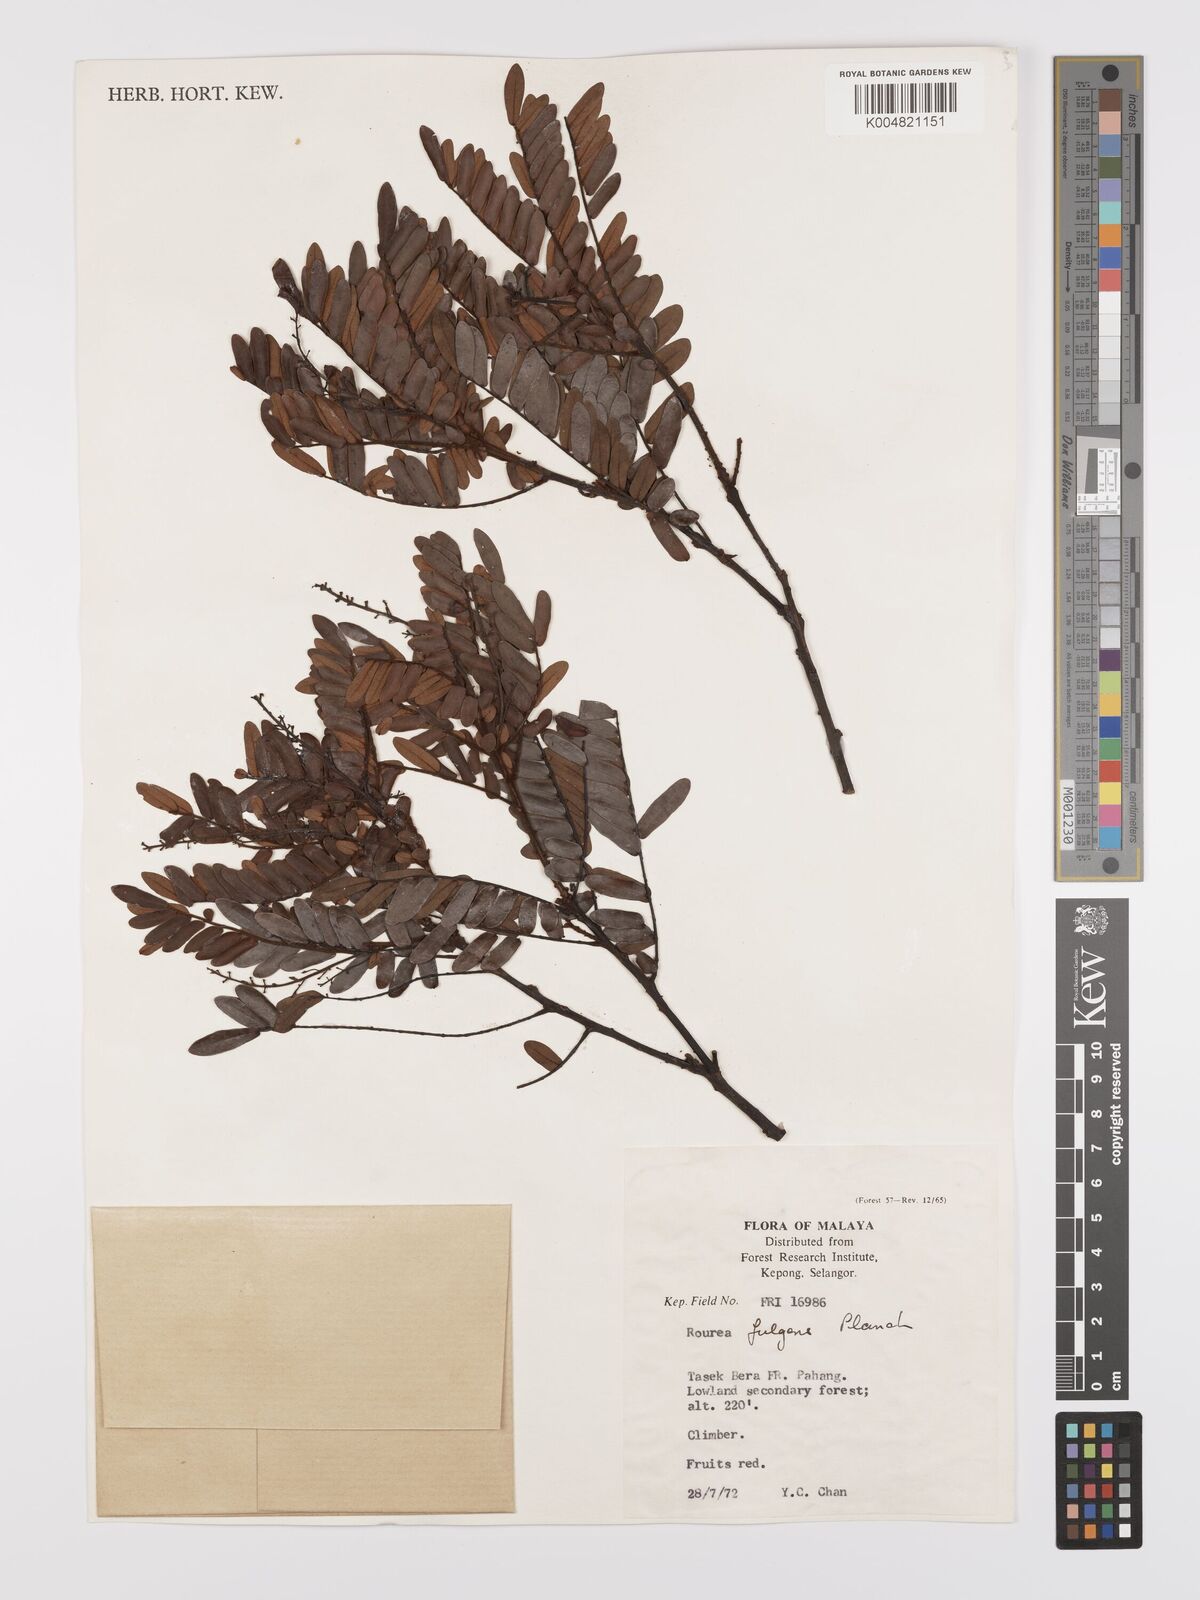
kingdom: Plantae
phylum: Tracheophyta
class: Magnoliopsida
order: Oxalidales
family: Connaraceae
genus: Rourea
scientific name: Rourea fulgens
